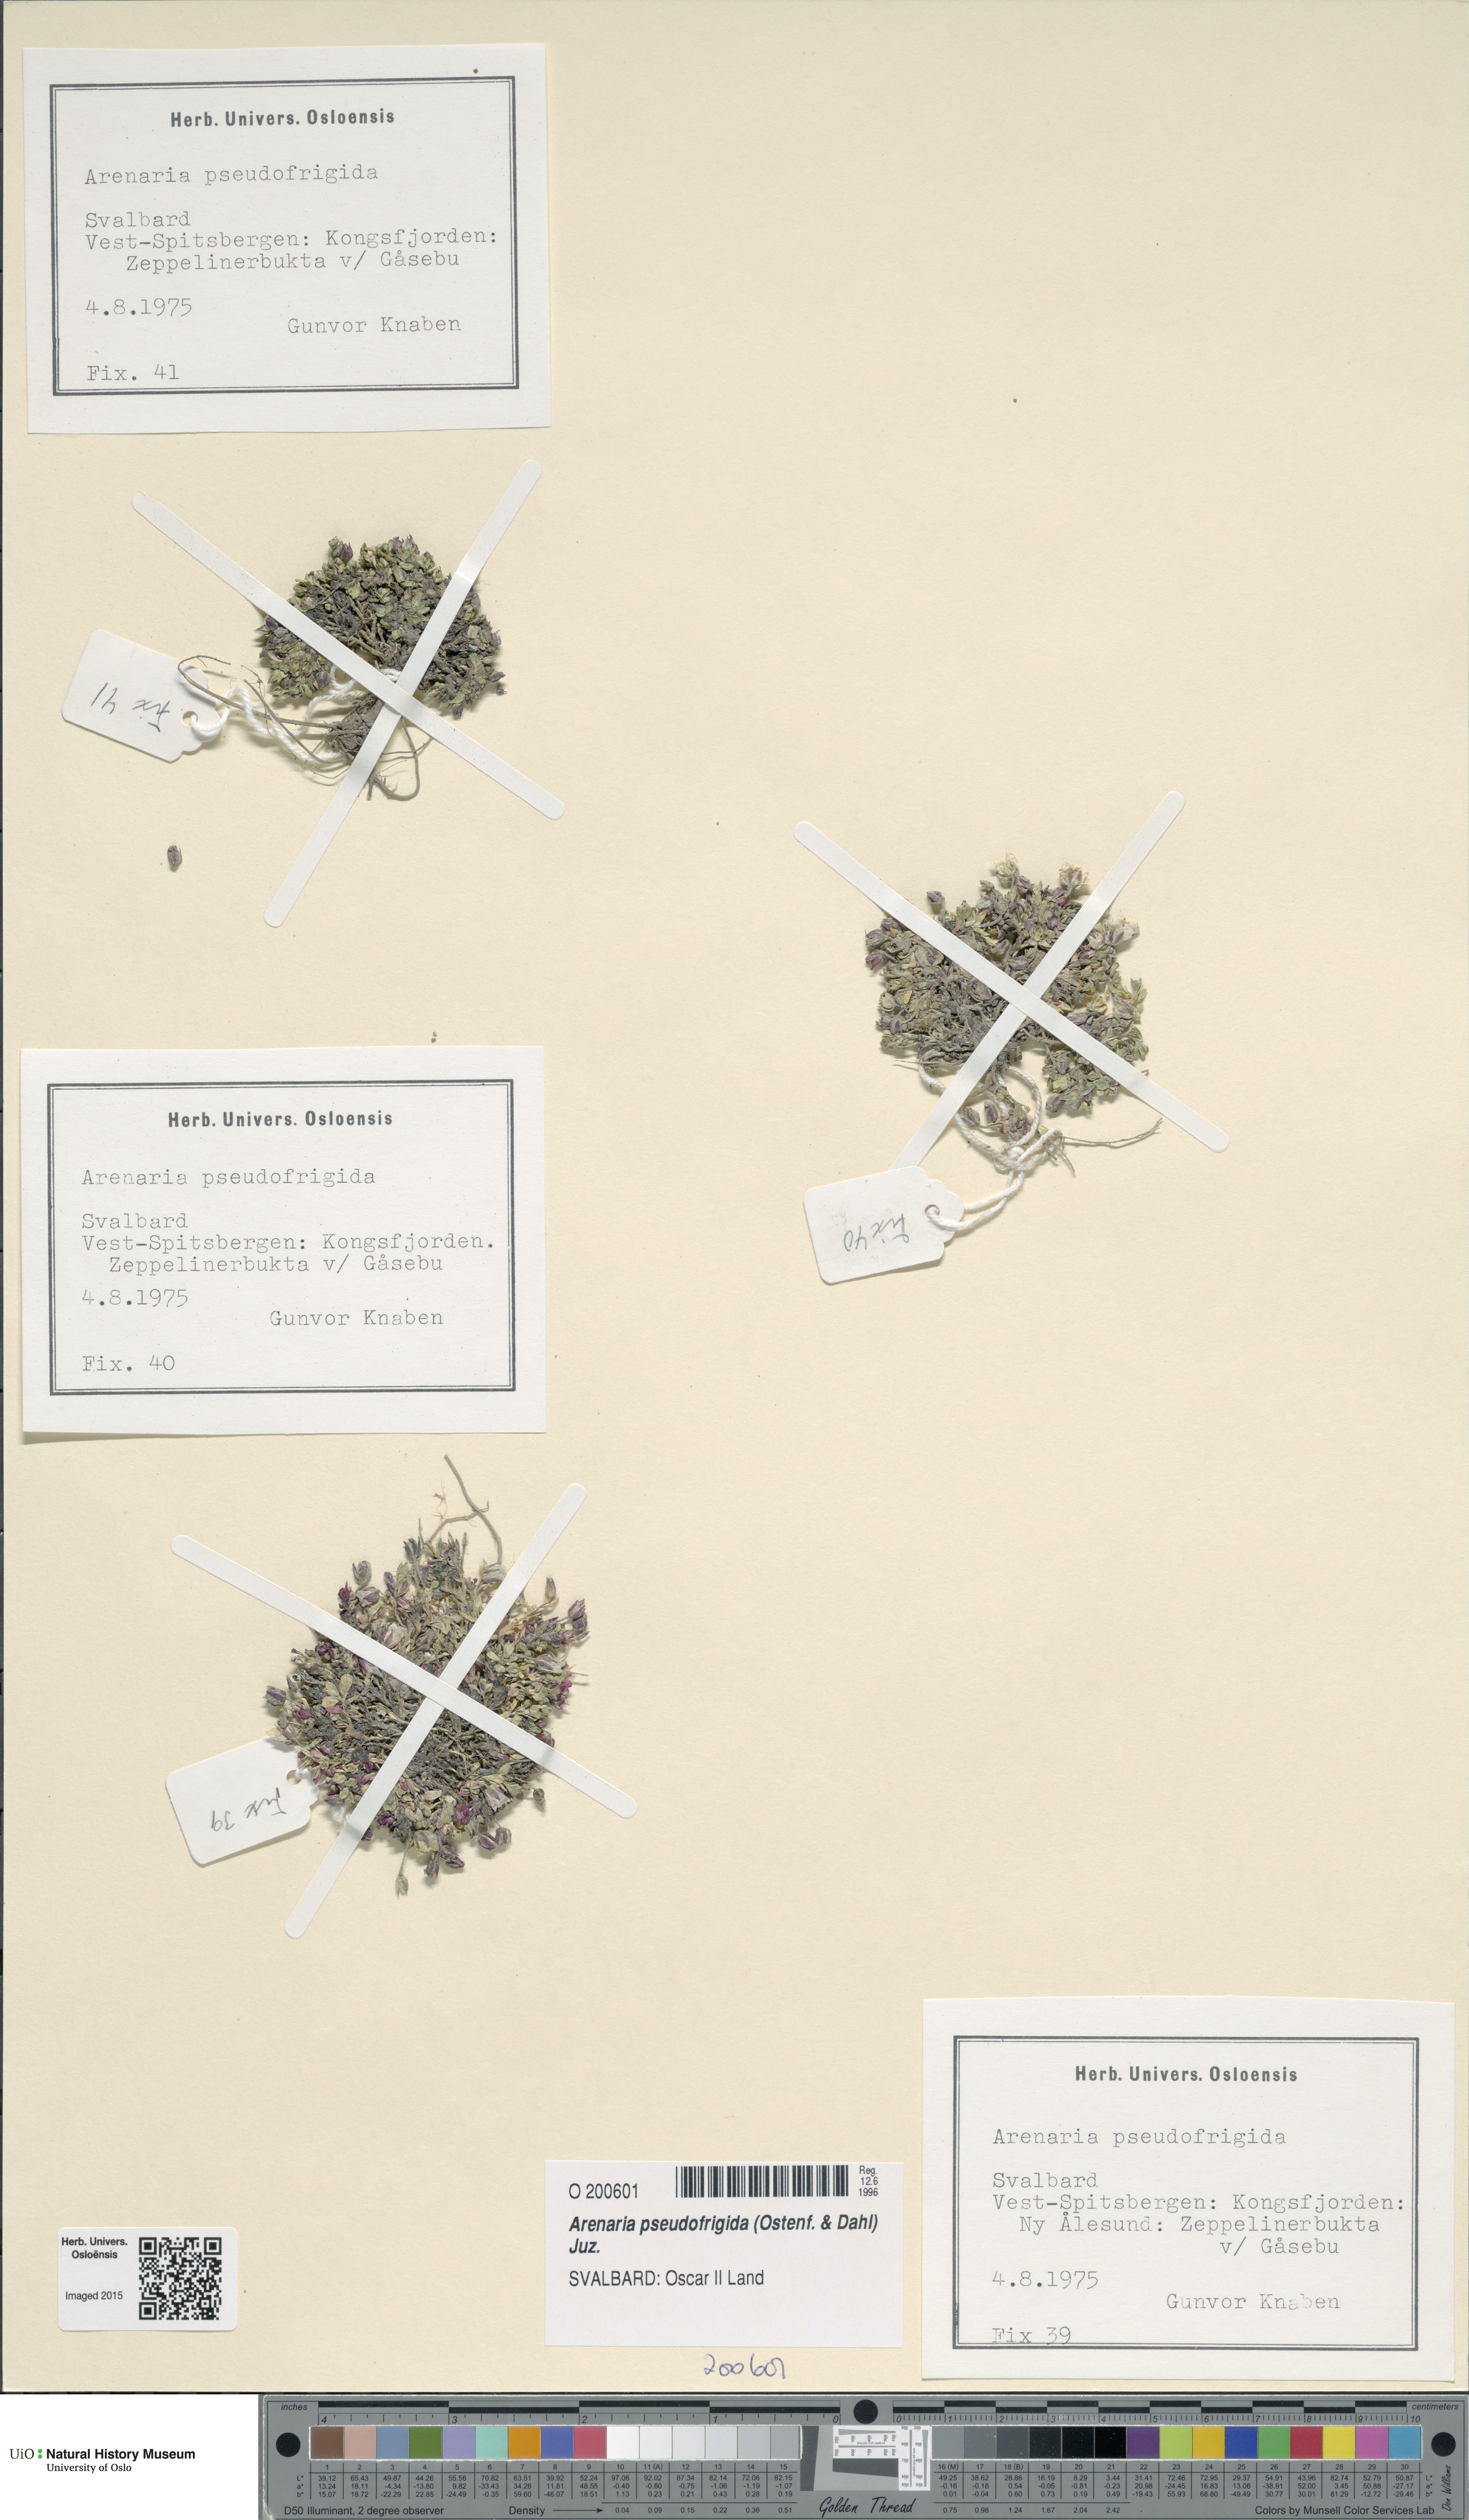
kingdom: Plantae
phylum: Tracheophyta
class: Magnoliopsida
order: Caryophyllales
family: Caryophyllaceae
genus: Arenaria
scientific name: Arenaria pseudofrigida
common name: Tundra sandwort
